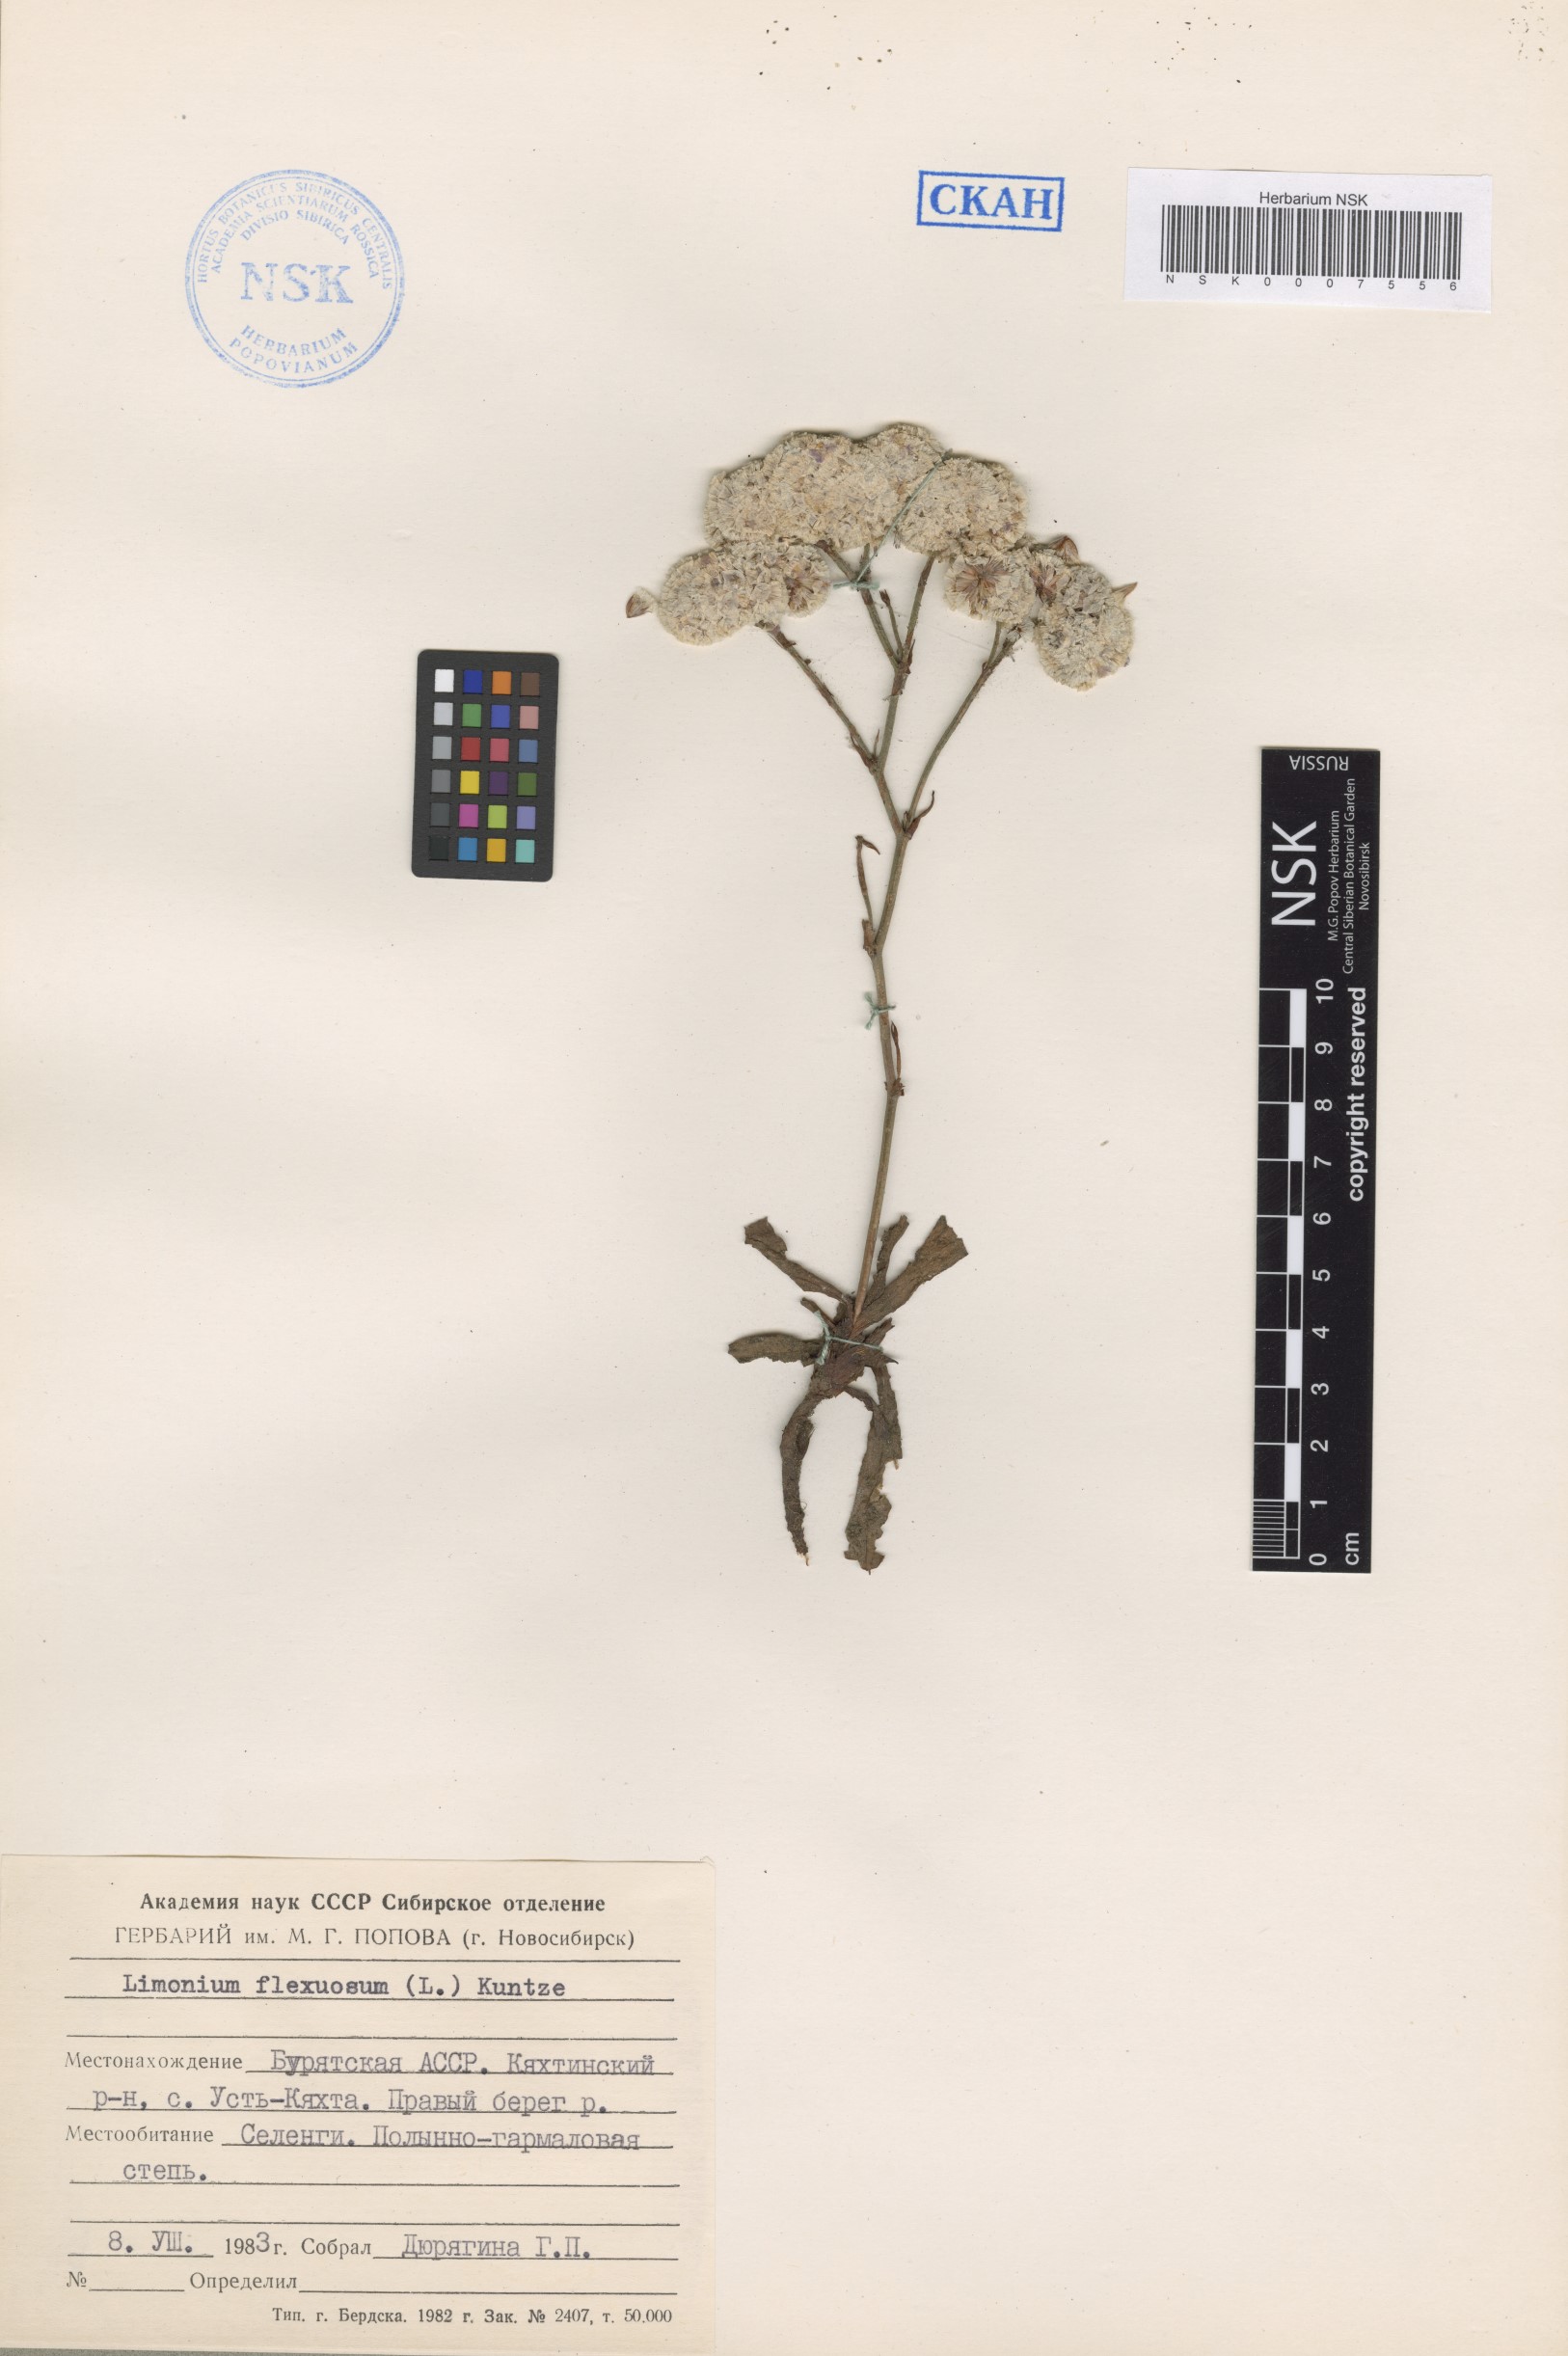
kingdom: Plantae
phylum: Tracheophyta
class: Magnoliopsida
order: Caryophyllales
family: Plumbaginaceae
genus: Limonium
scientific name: Limonium flexuosum
